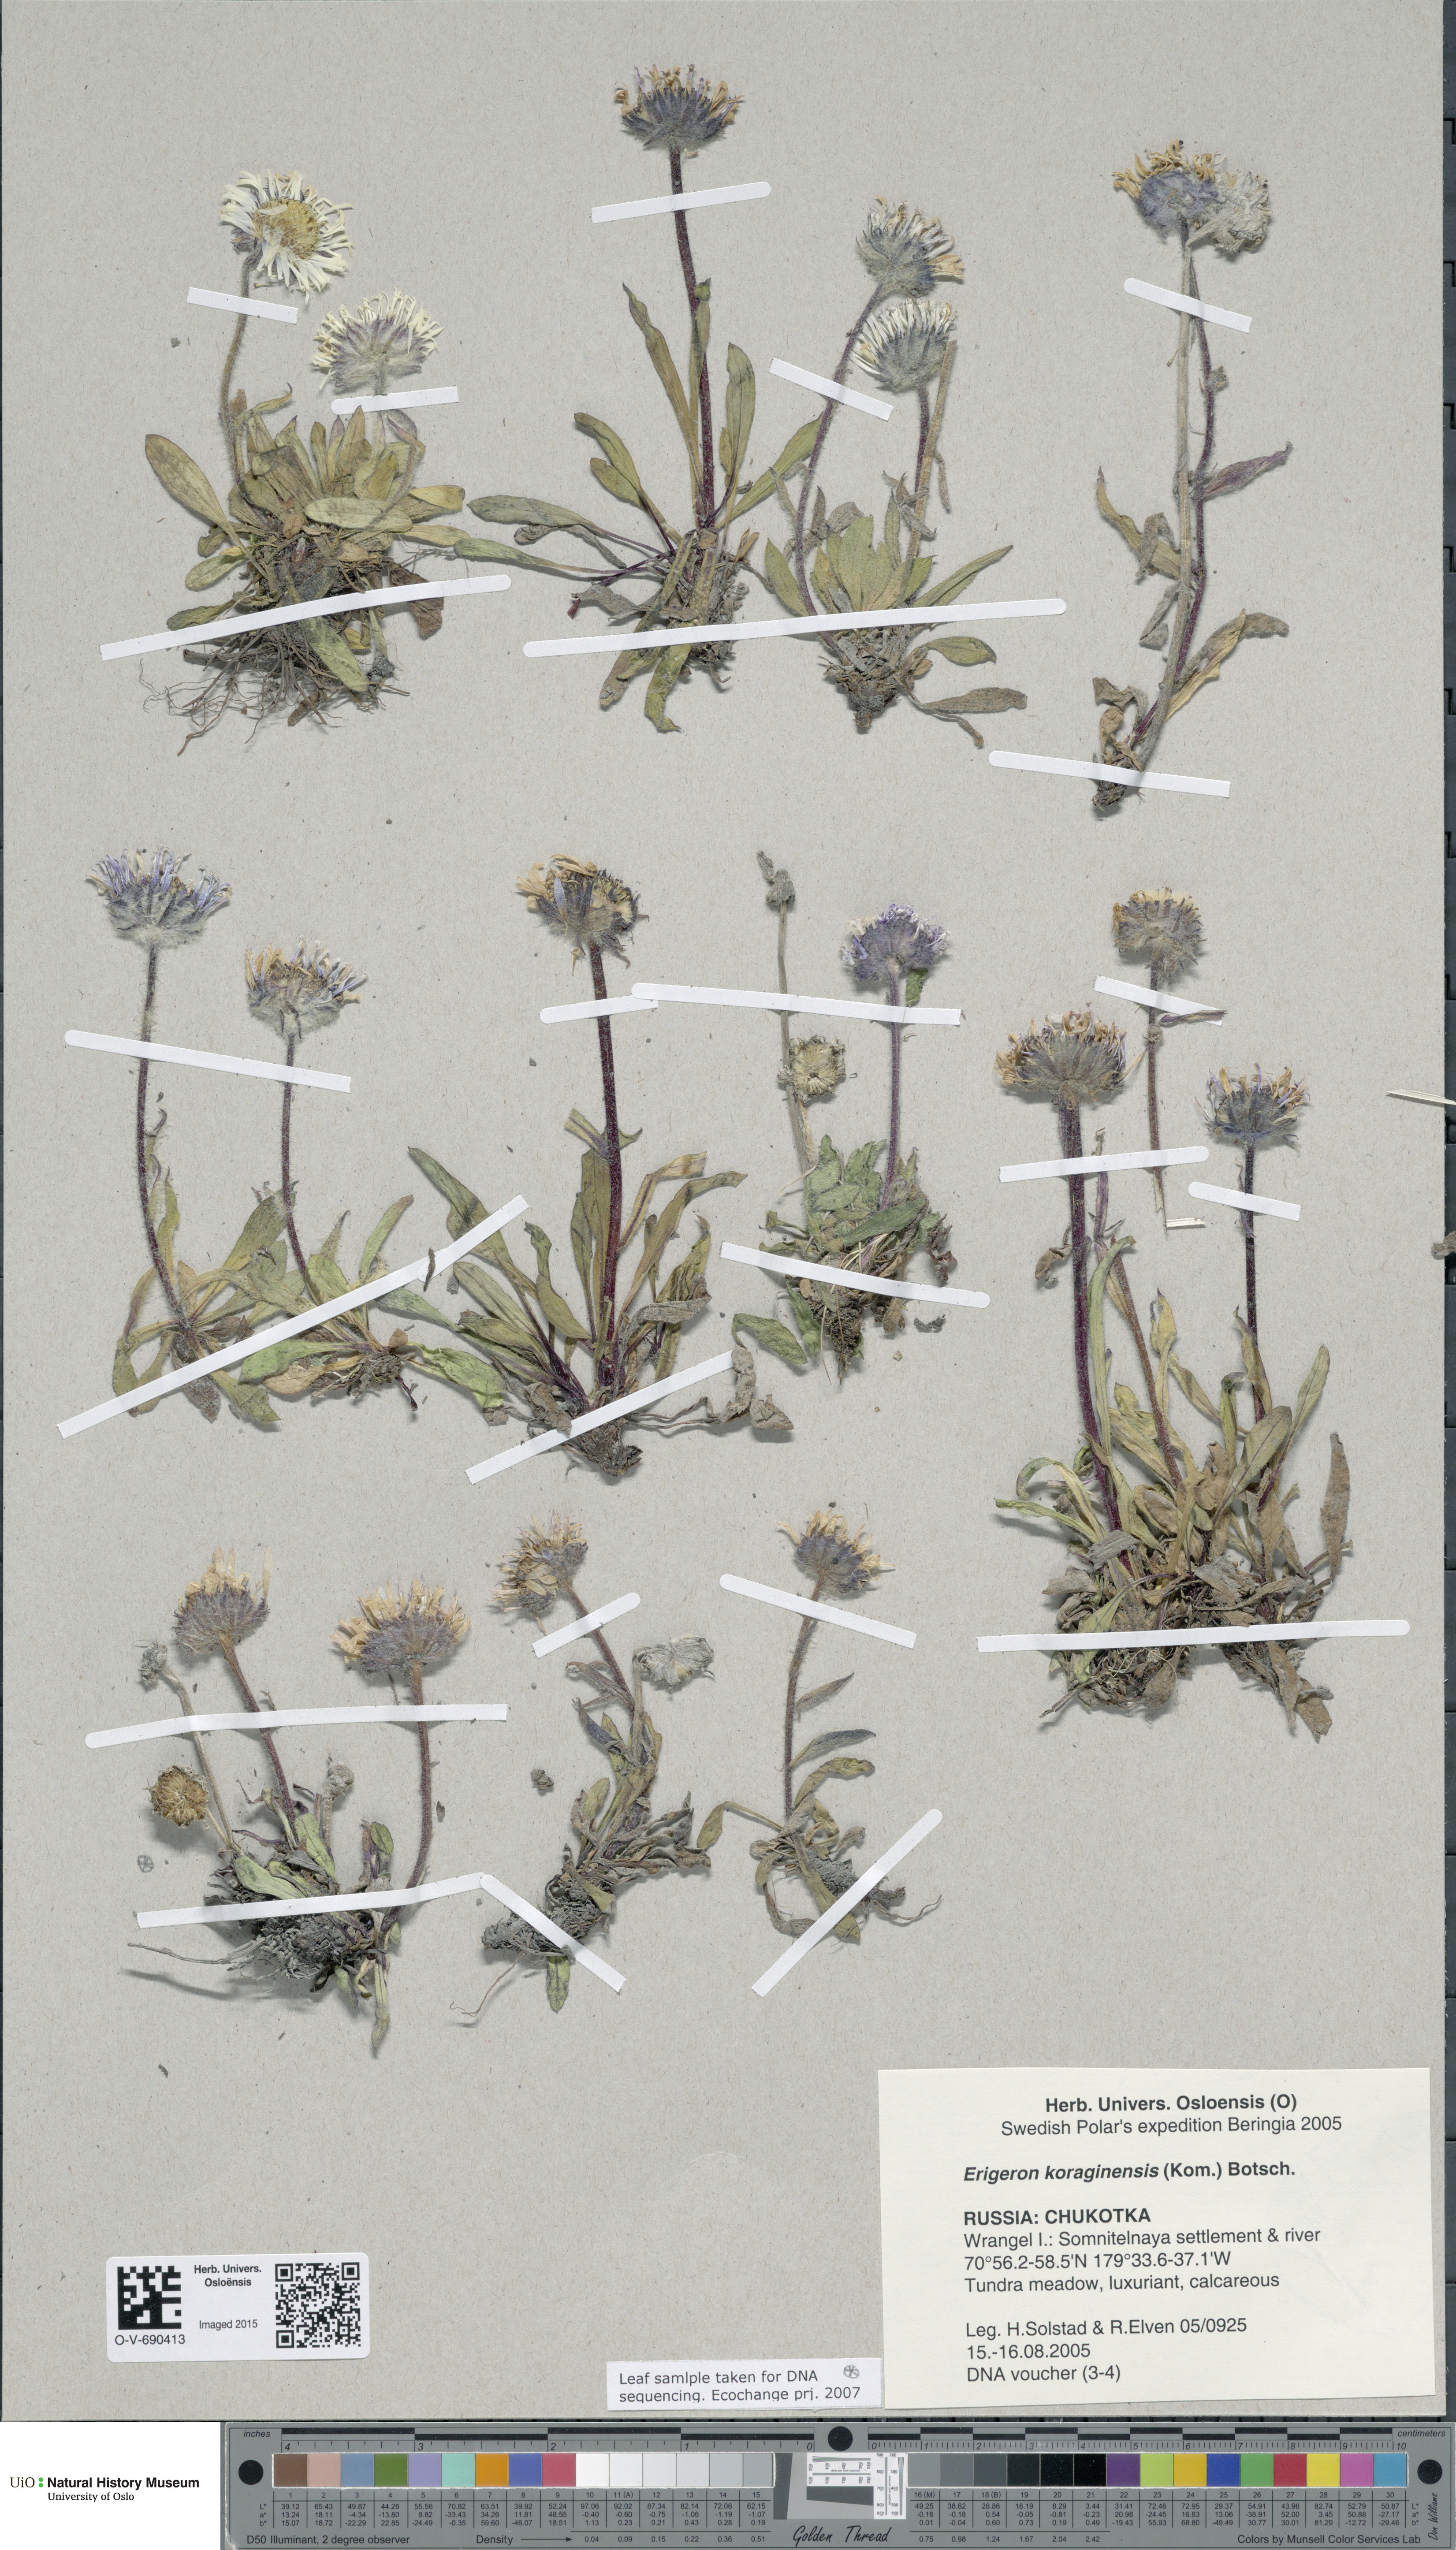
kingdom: Plantae
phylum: Tracheophyta
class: Magnoliopsida
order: Asterales
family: Asteraceae
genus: Erigeron
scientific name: Erigeron alpicola
